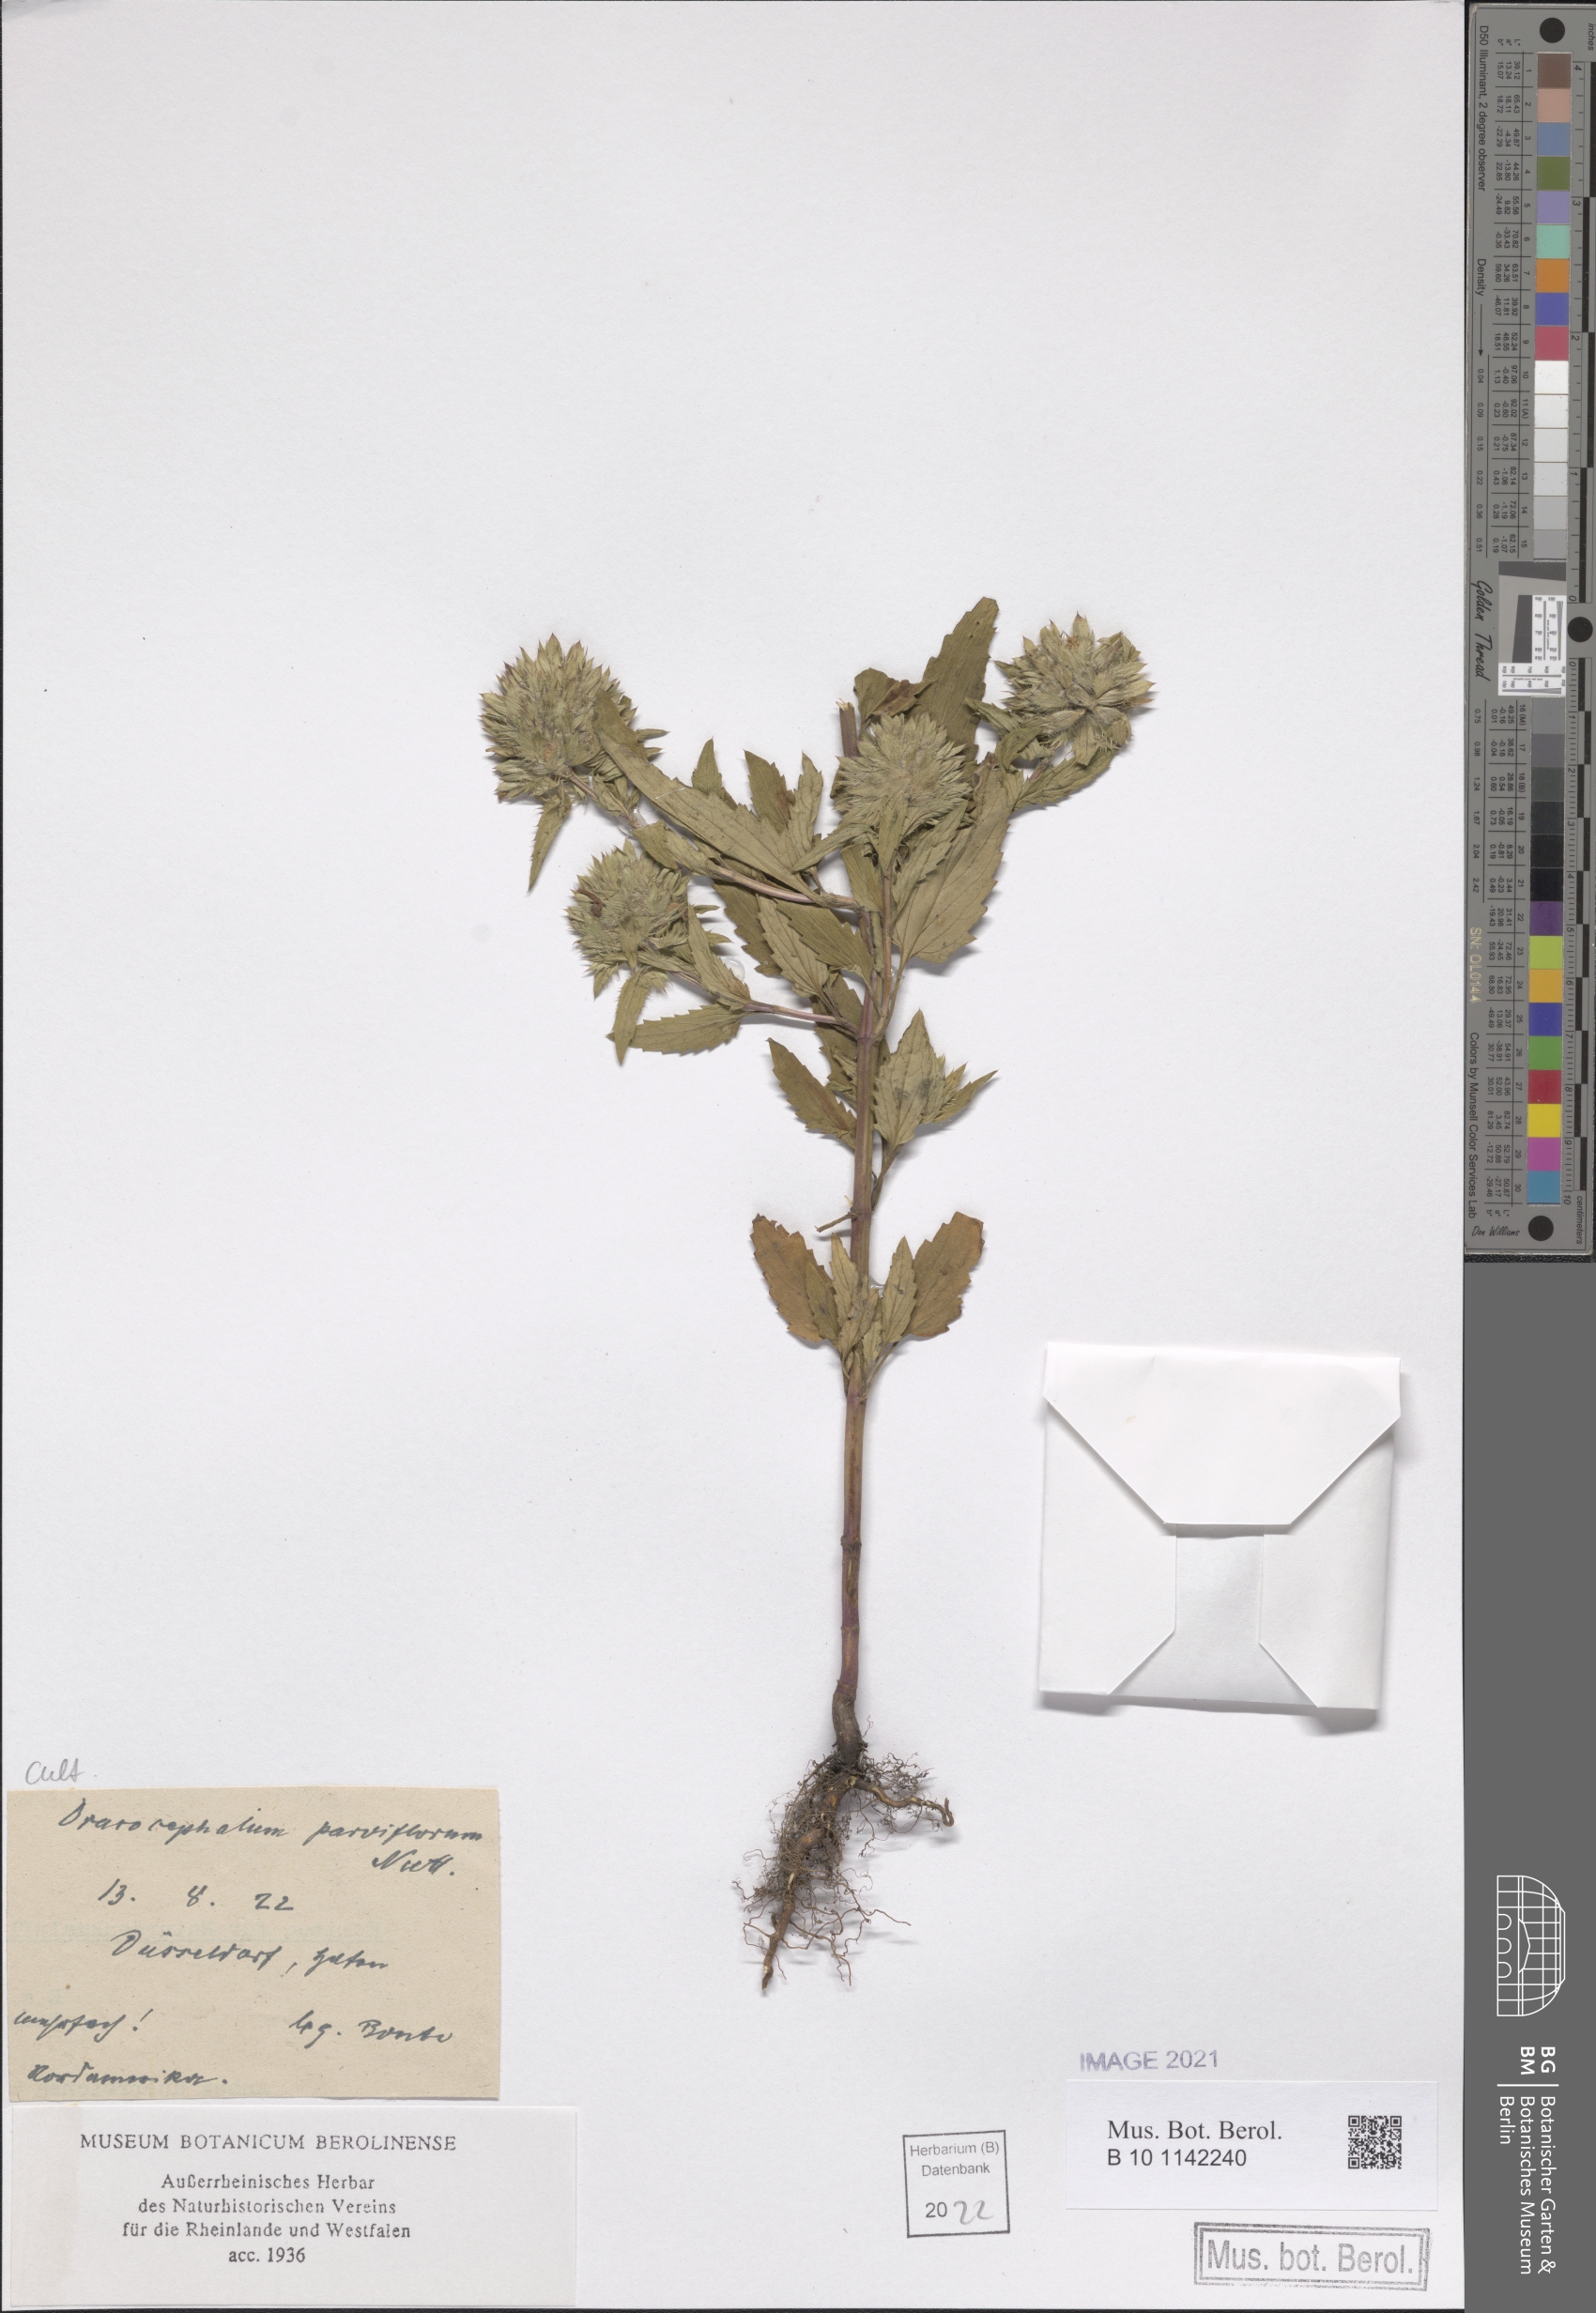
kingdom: Plantae
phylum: Tracheophyta
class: Magnoliopsida
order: Lamiales
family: Lamiaceae
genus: Dracocephalum
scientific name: Dracocephalum parviflorum
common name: American dragonhead
